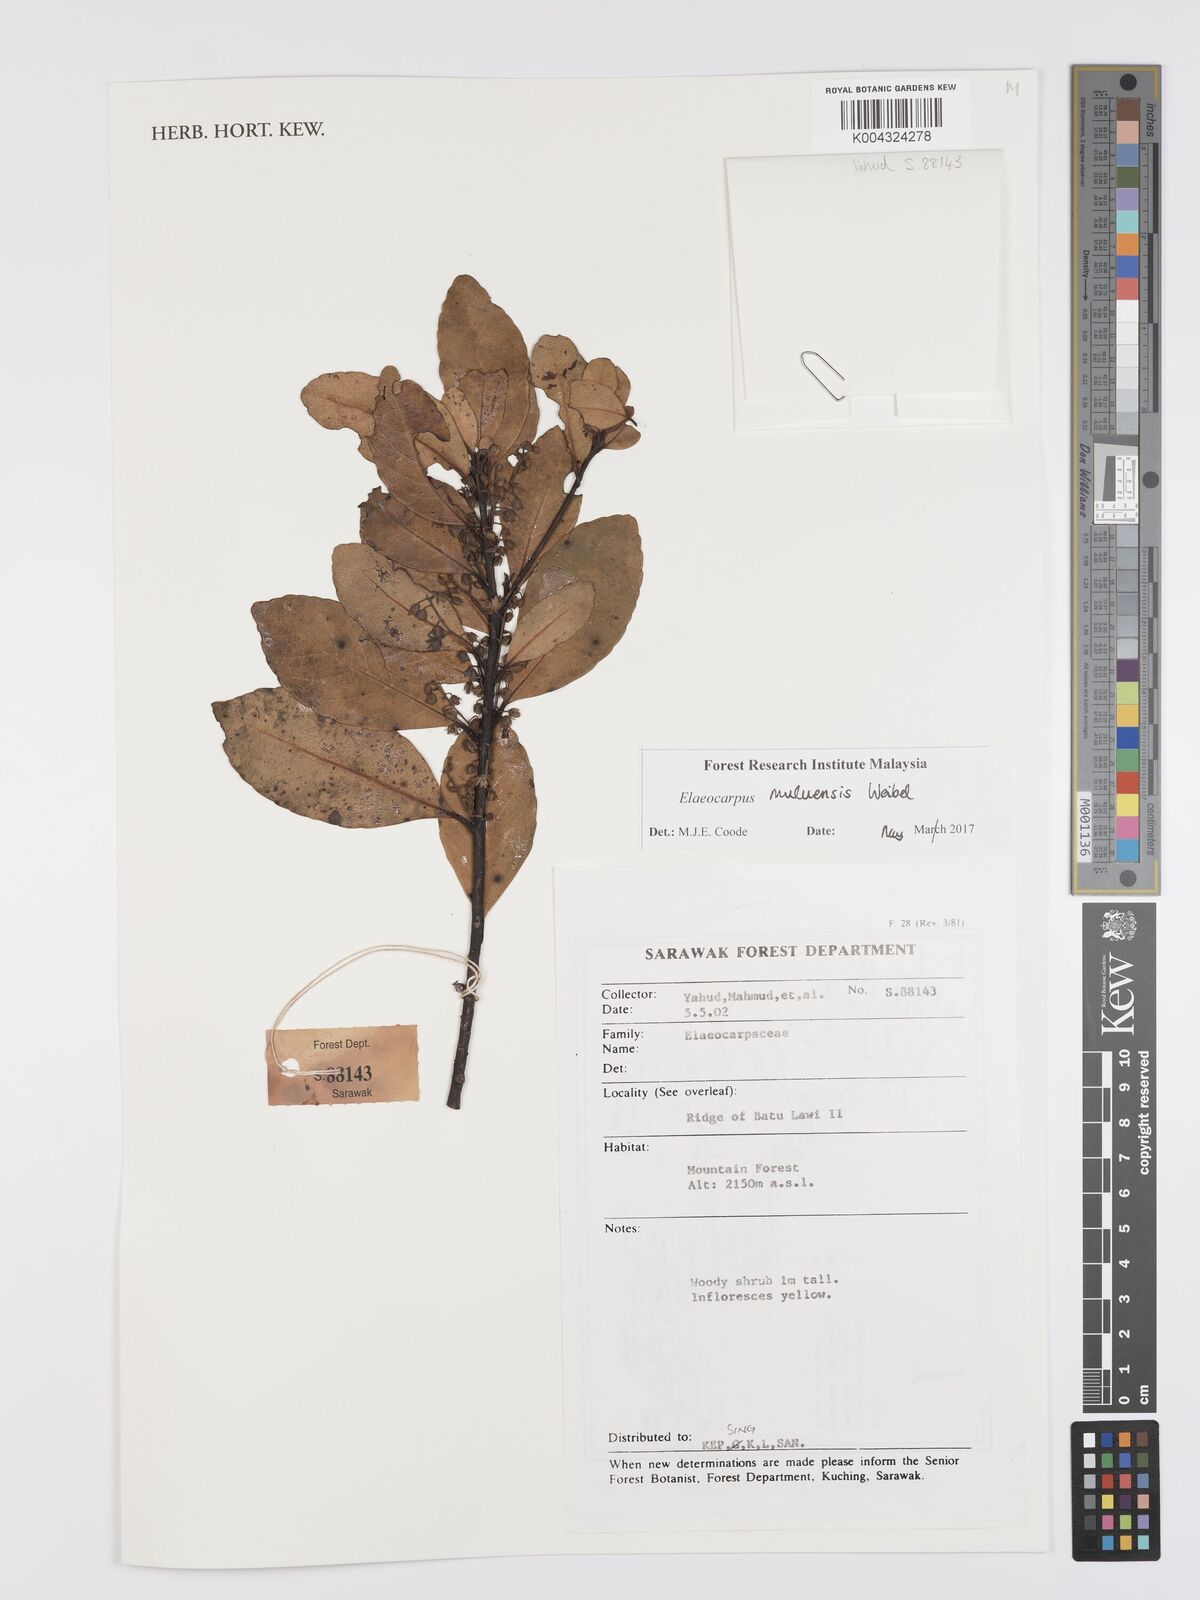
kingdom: Plantae
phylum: Tracheophyta
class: Magnoliopsida
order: Oxalidales
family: Elaeocarpaceae
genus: Elaeocarpus
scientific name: Elaeocarpus muluensis
